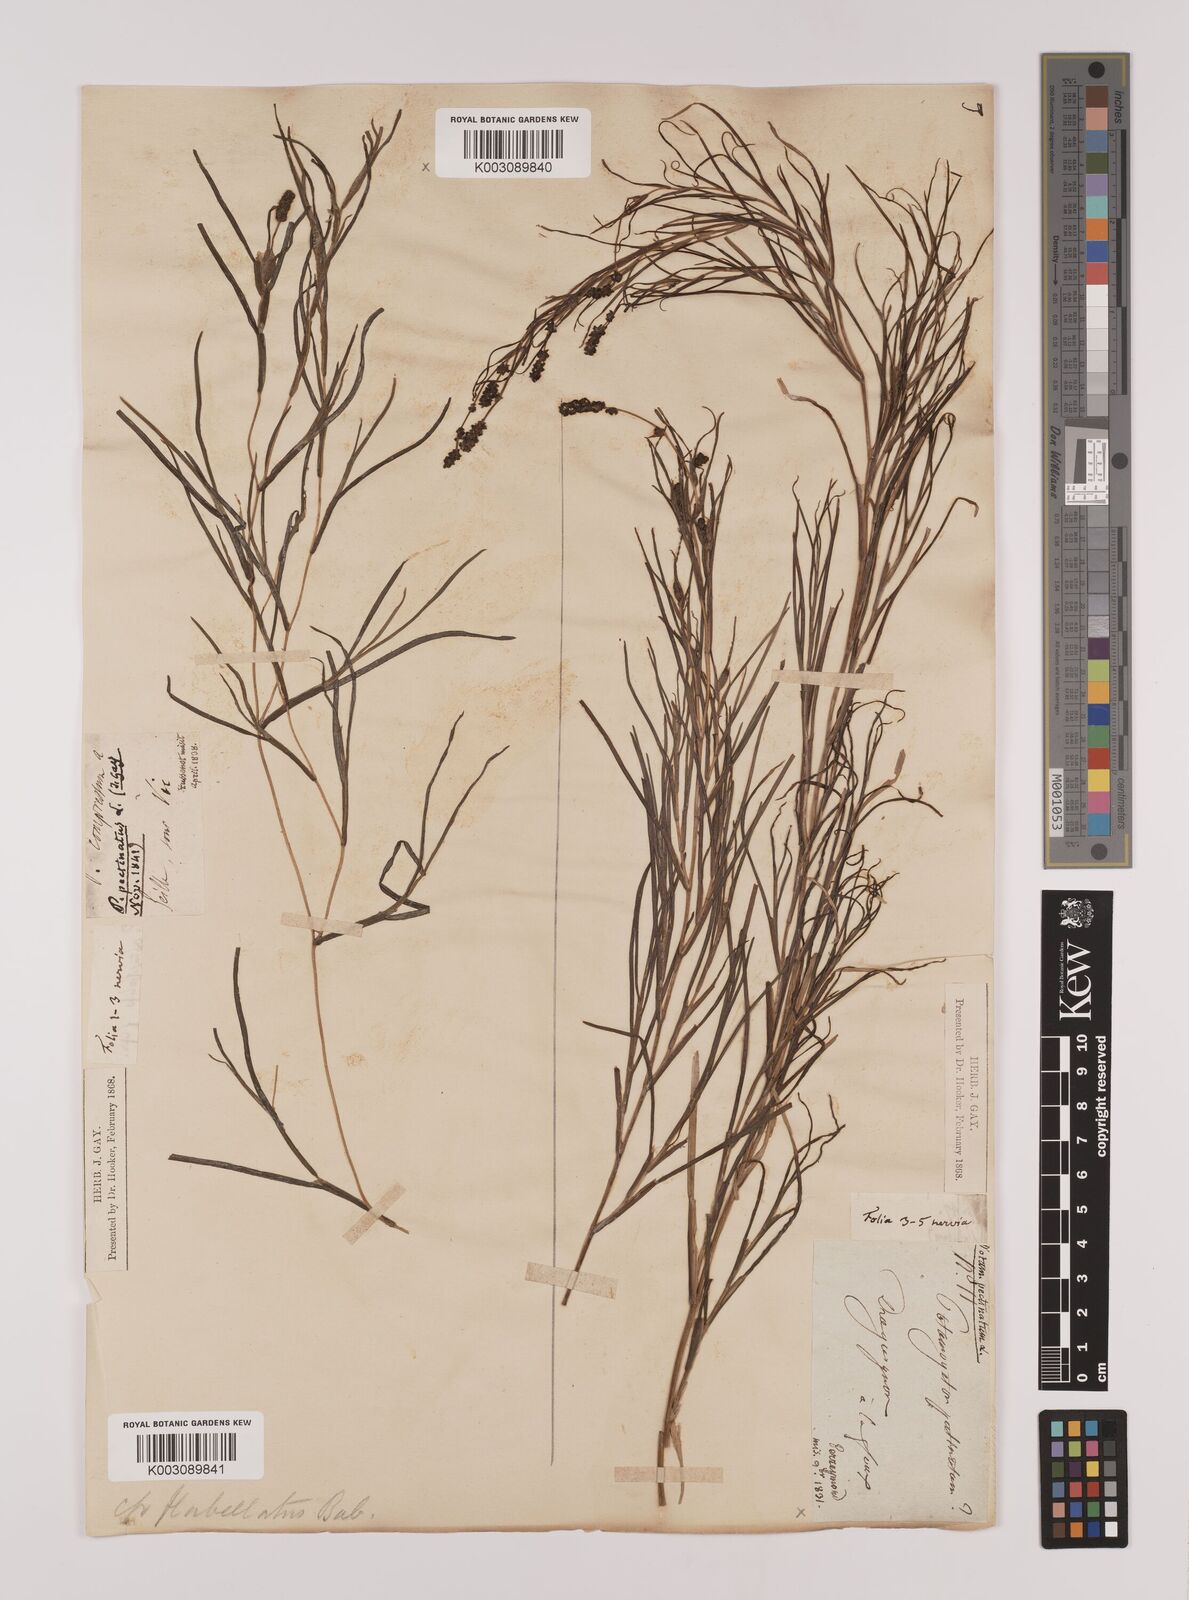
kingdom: Plantae
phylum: Tracheophyta
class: Liliopsida
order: Alismatales
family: Potamogetonaceae
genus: Stuckenia
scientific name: Stuckenia pectinata
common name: Sago pondweed
